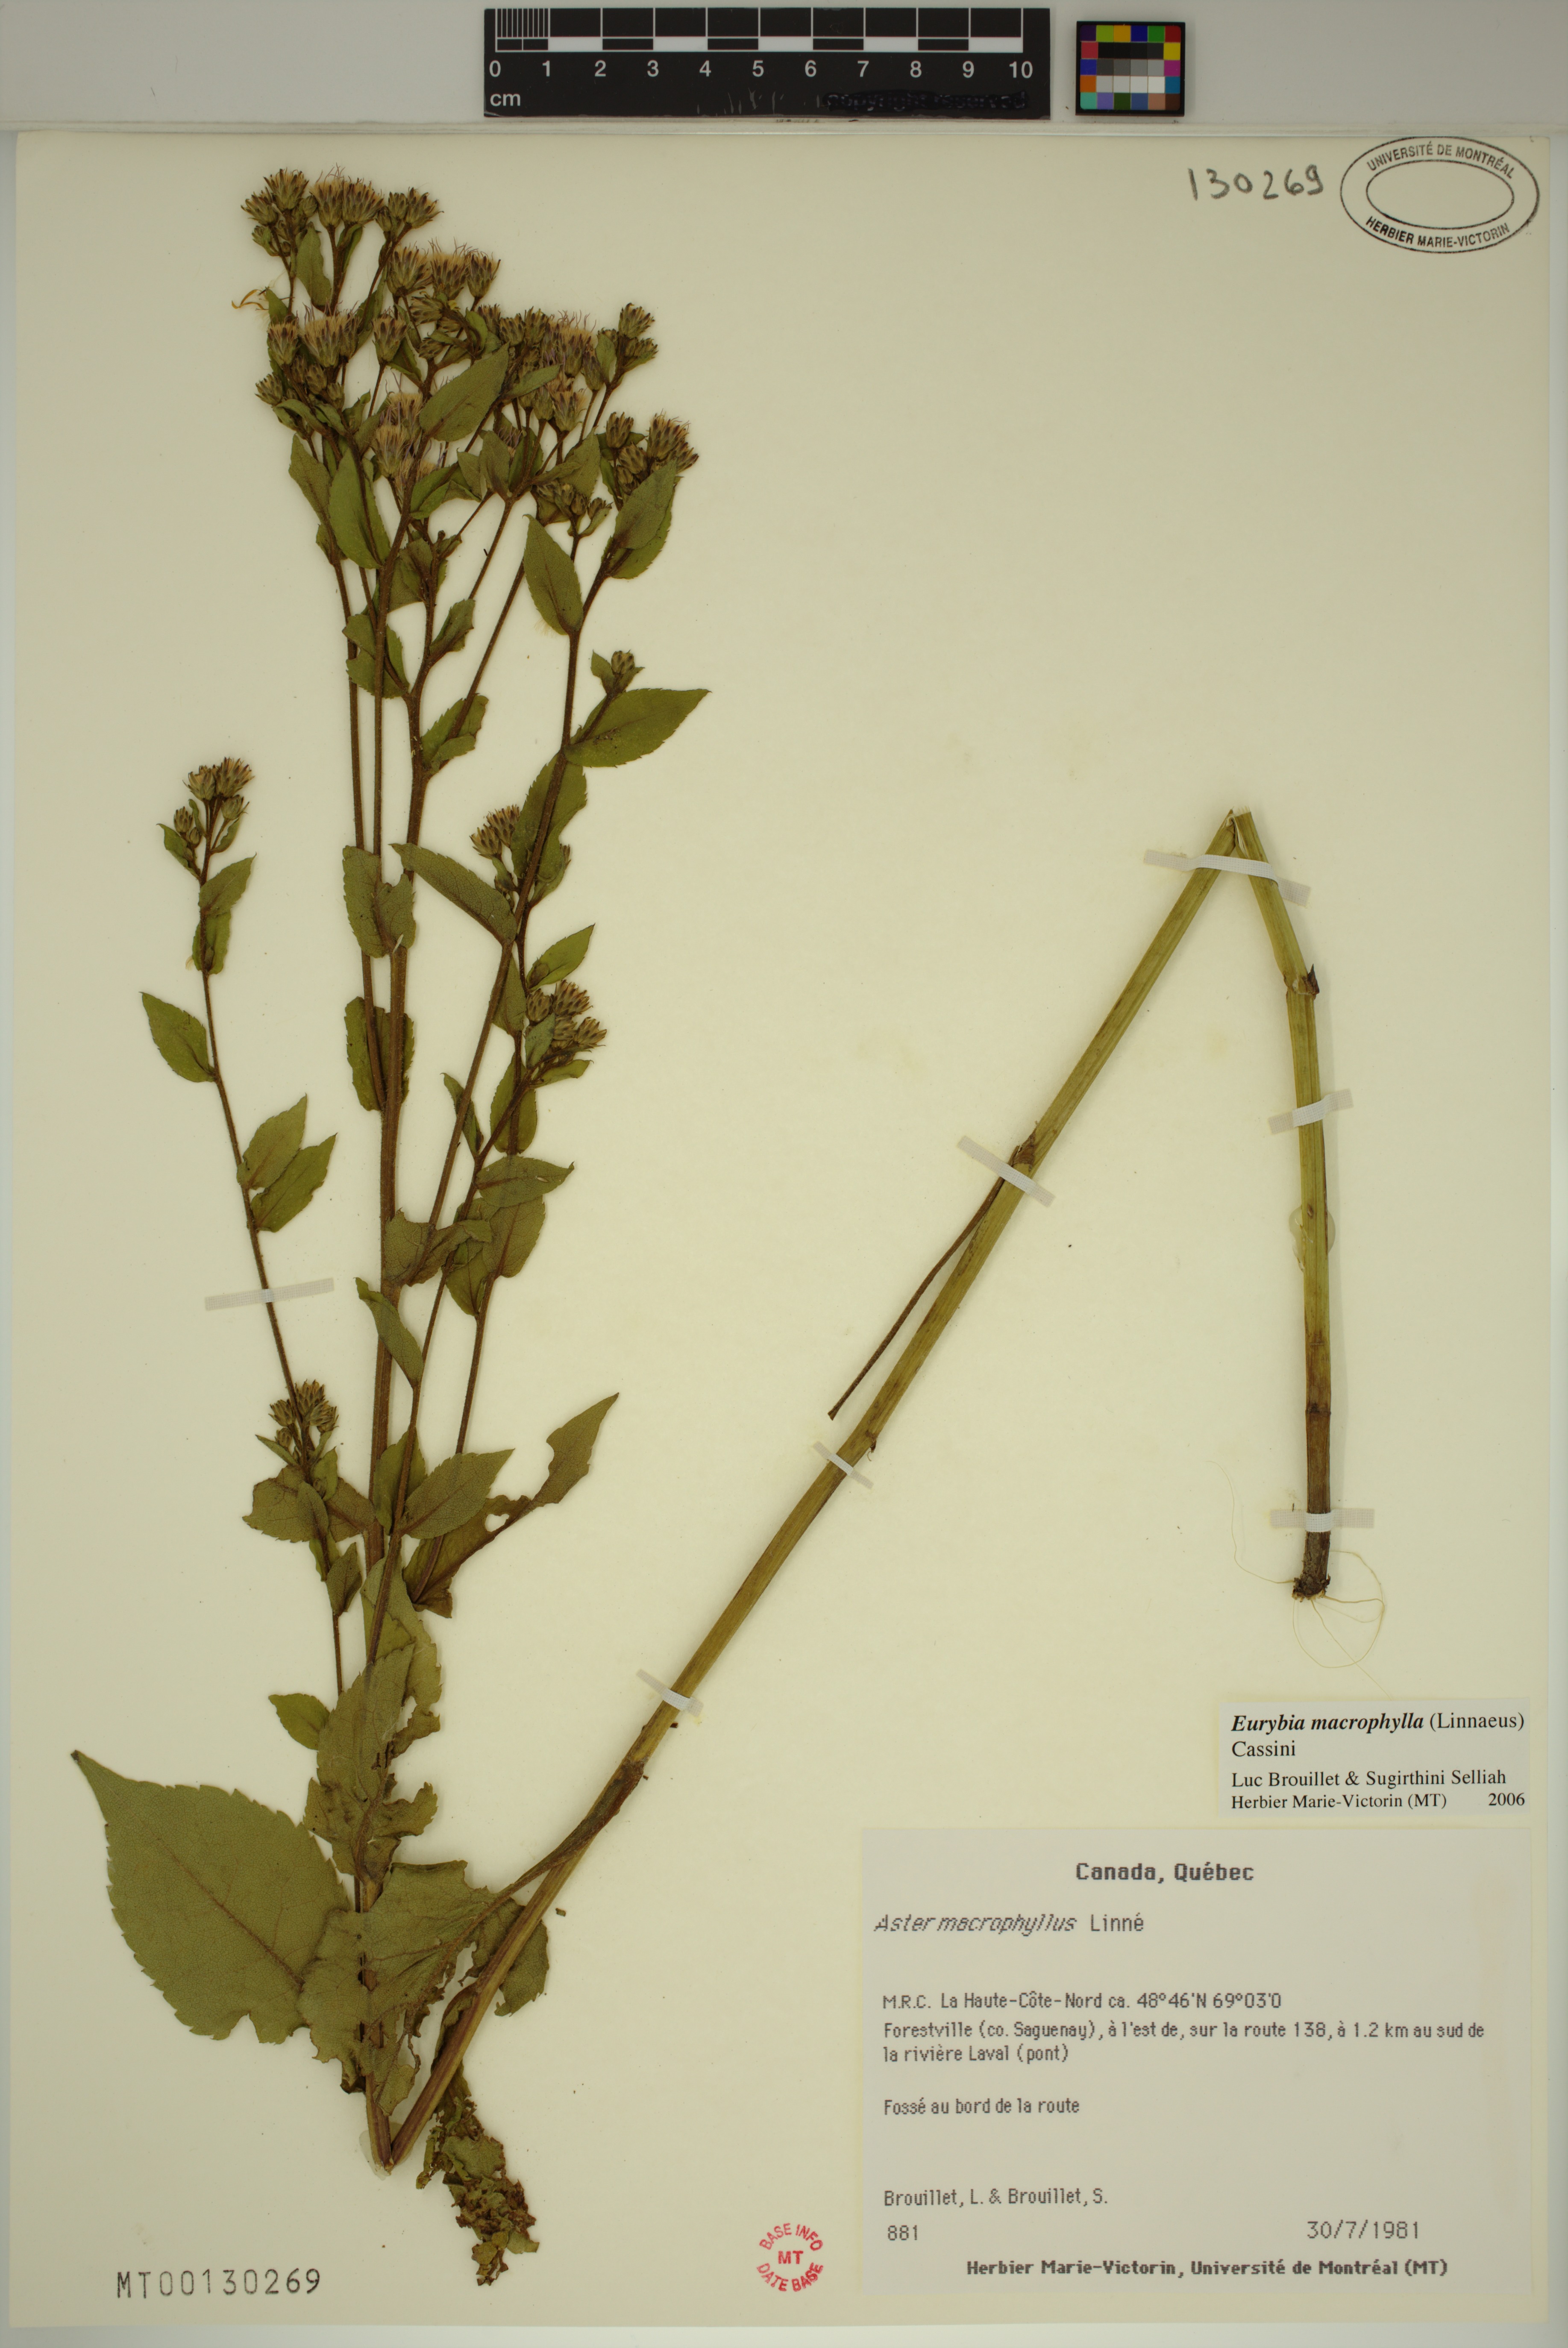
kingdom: Plantae
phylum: Tracheophyta
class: Magnoliopsida
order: Asterales
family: Asteraceae
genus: Eurybia
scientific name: Eurybia macrophylla
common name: Big-leaved aster
